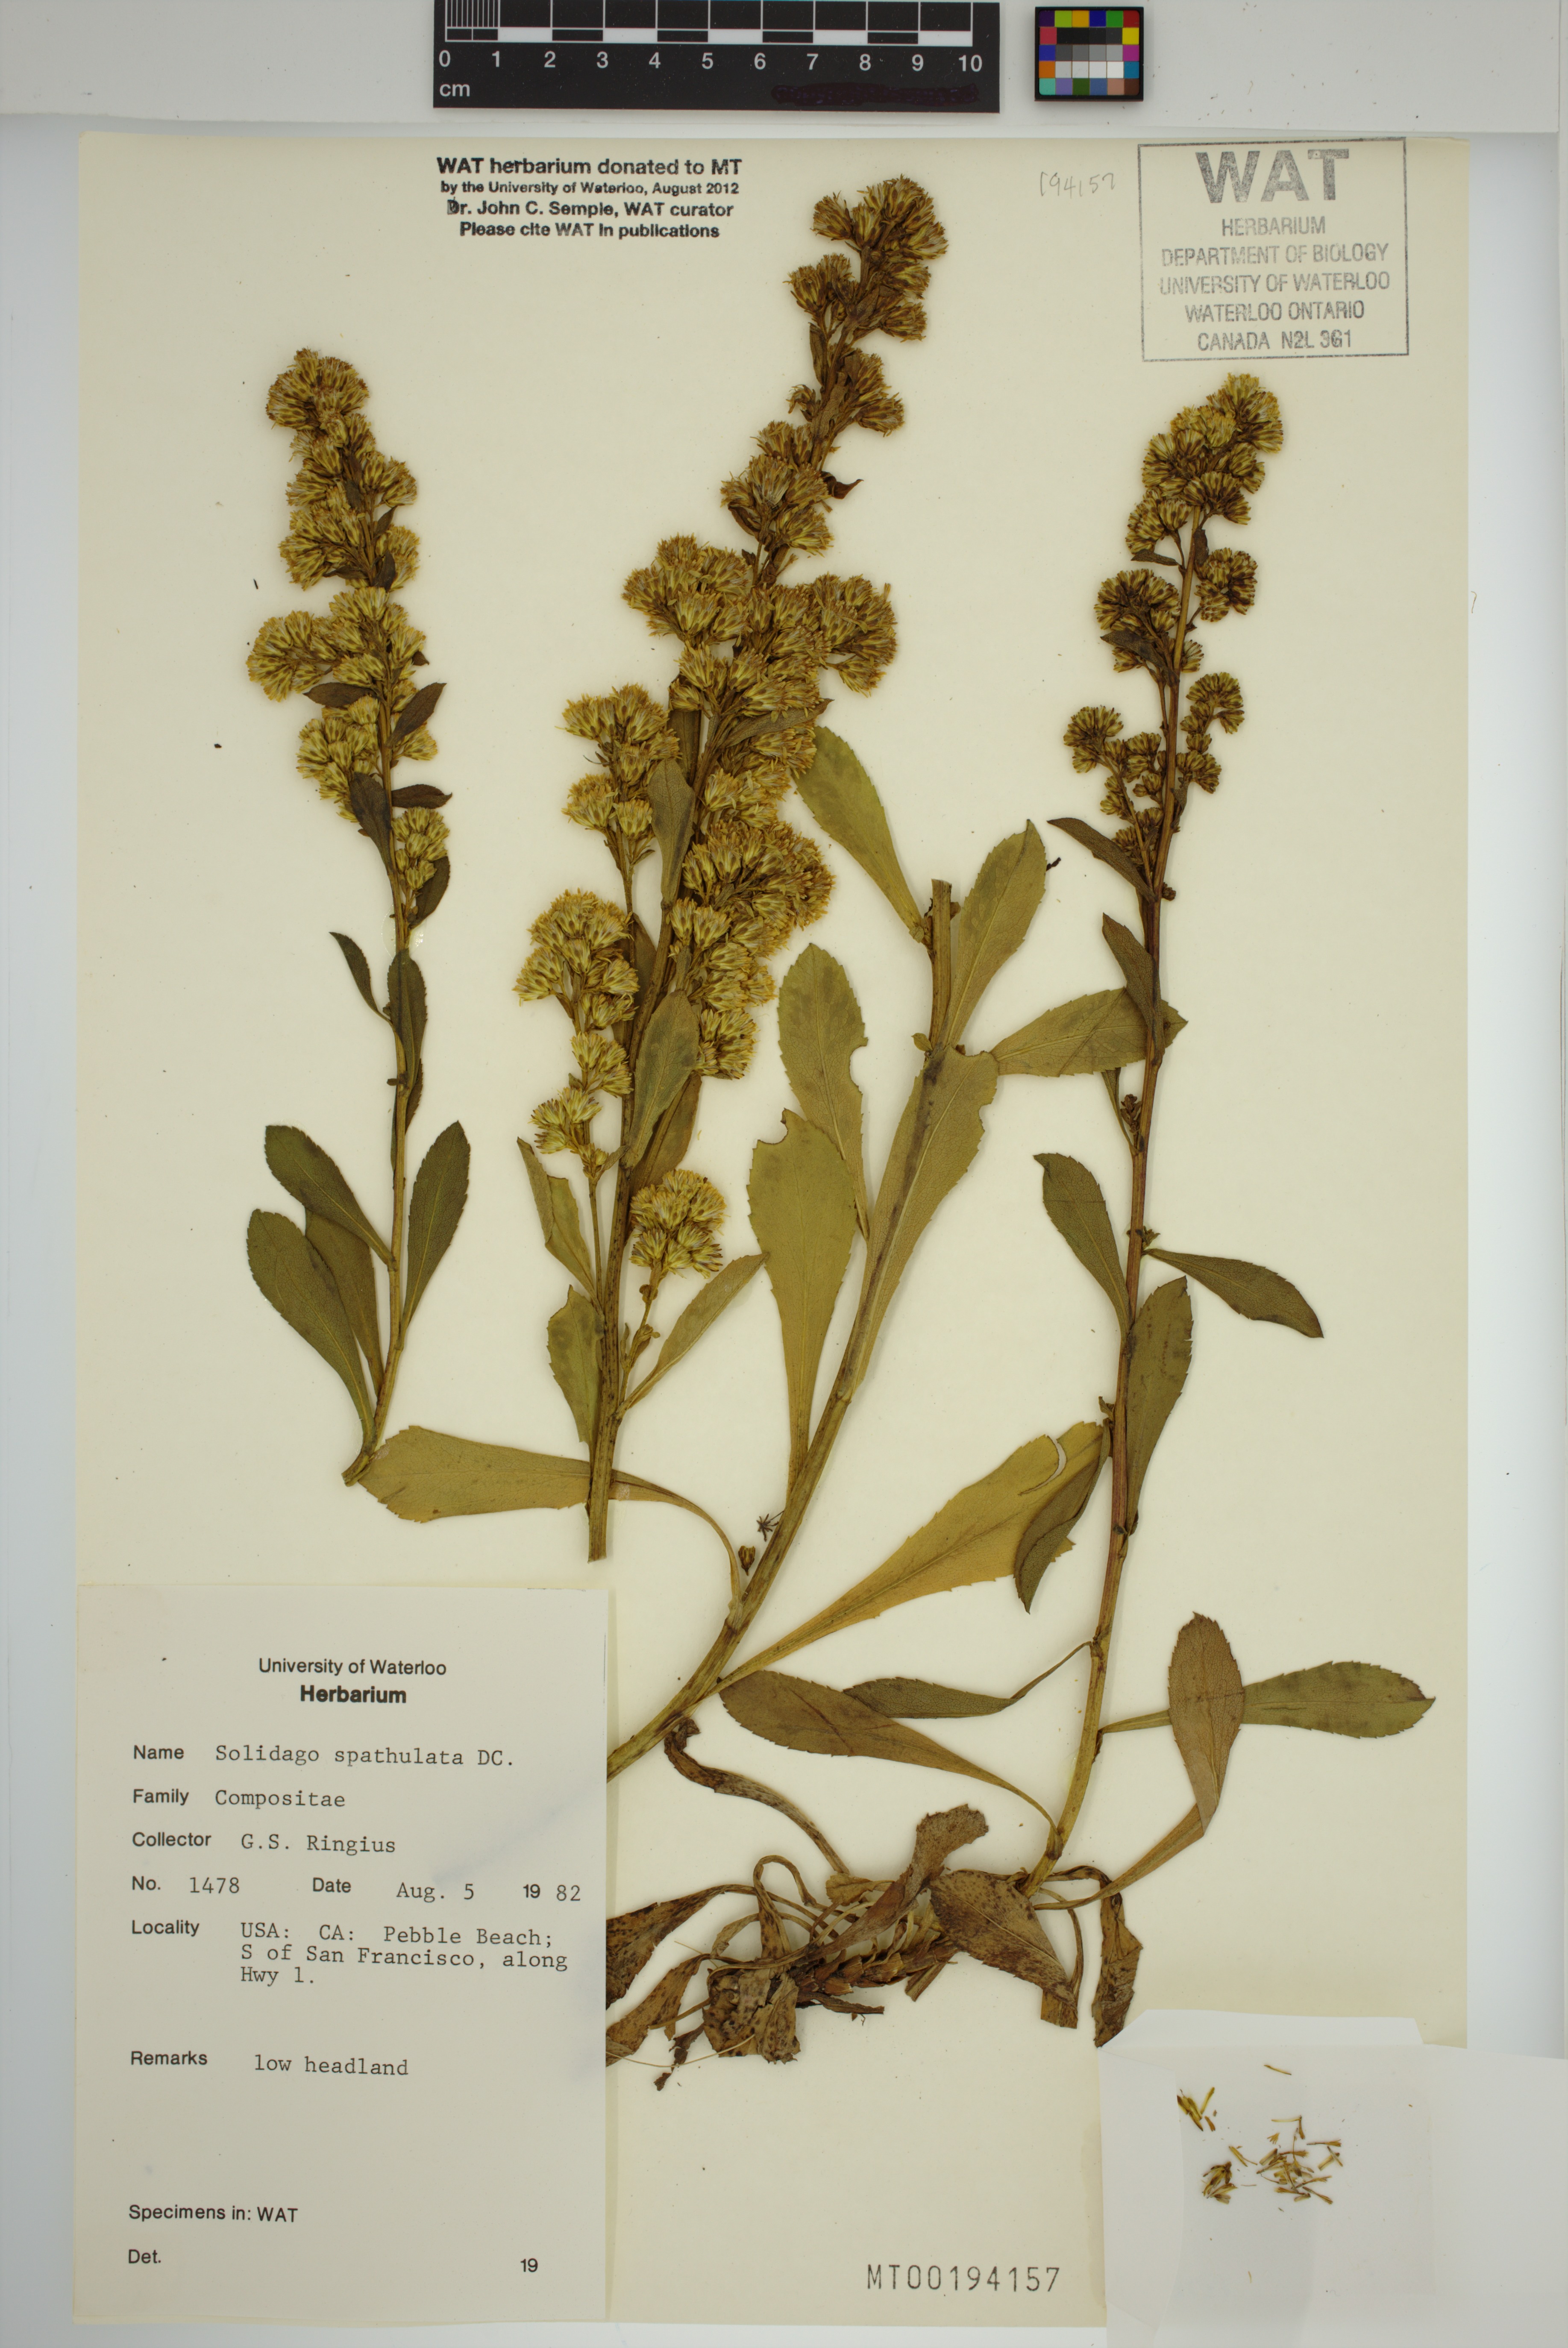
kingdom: Plantae
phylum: Tracheophyta
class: Magnoliopsida
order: Asterales
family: Asteraceae
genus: Solidago
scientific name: Solidago spathulata
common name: Coast goldenrod
